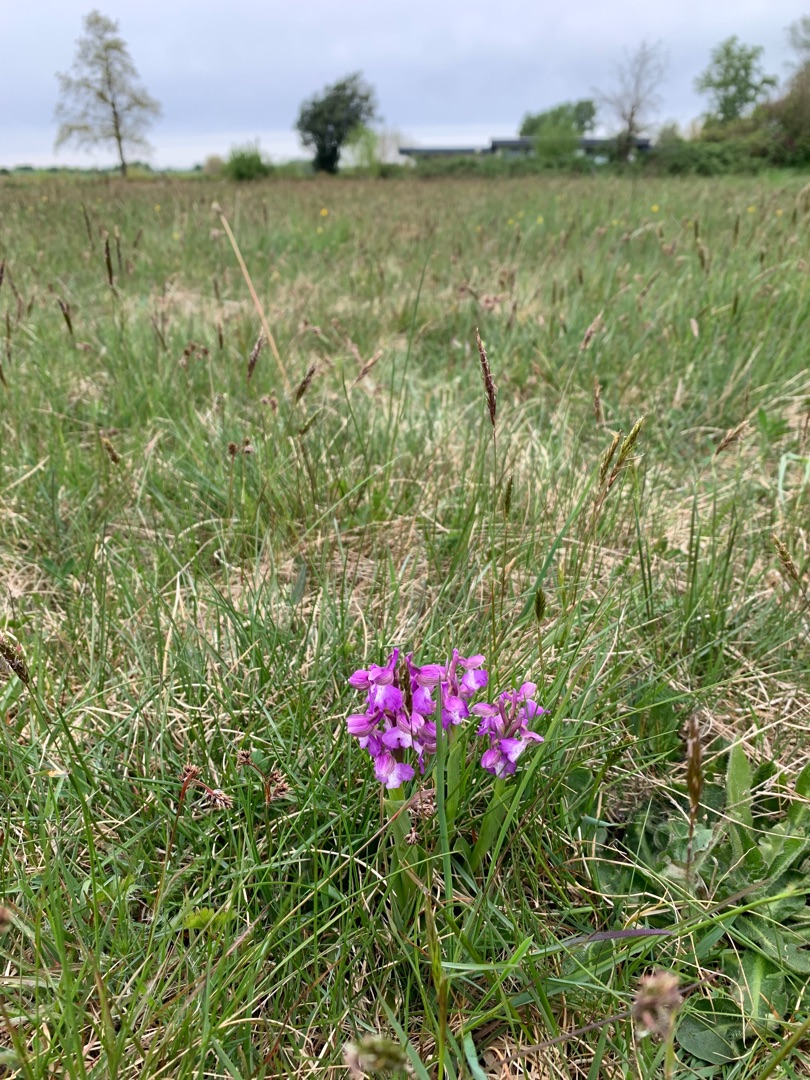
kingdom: Plantae
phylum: Tracheophyta
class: Liliopsida
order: Asparagales
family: Orchidaceae
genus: Anacamptis
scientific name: Anacamptis morio
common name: Salepgøgeurt
